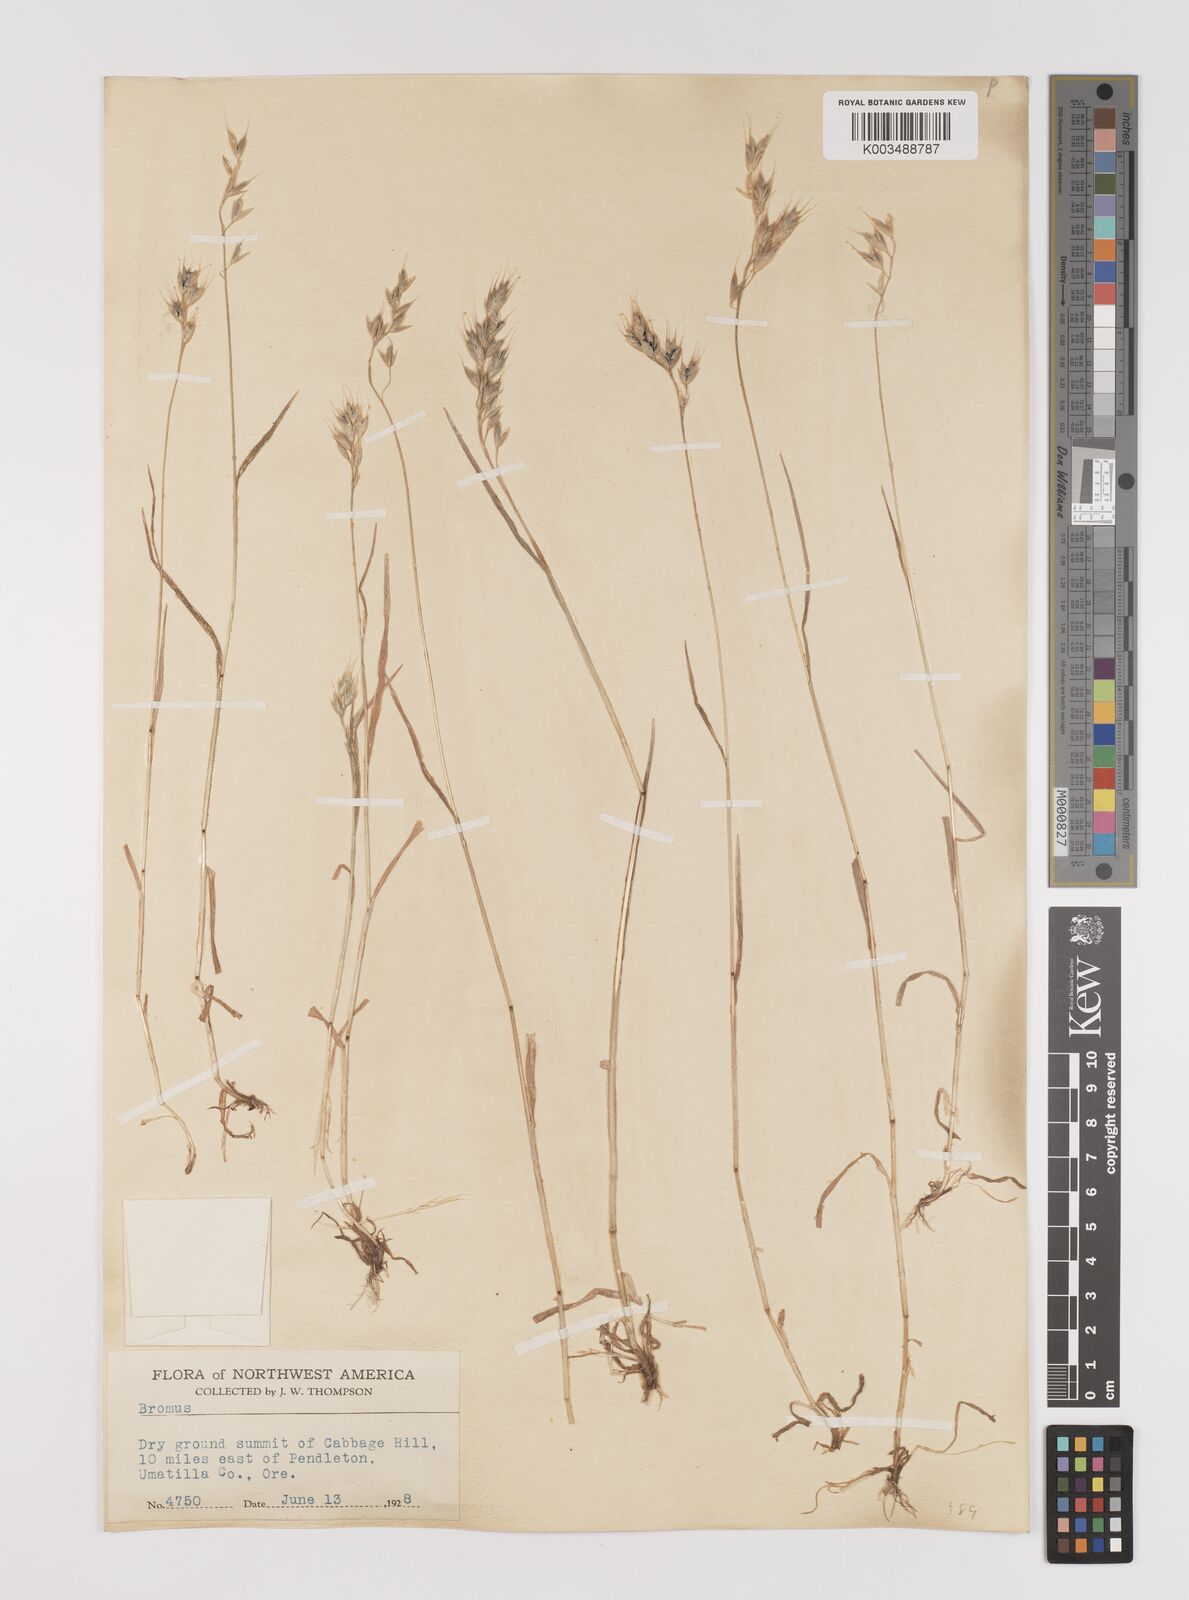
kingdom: Plantae
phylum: Tracheophyta
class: Liliopsida
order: Poales
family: Poaceae
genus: Bromus
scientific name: Bromus
